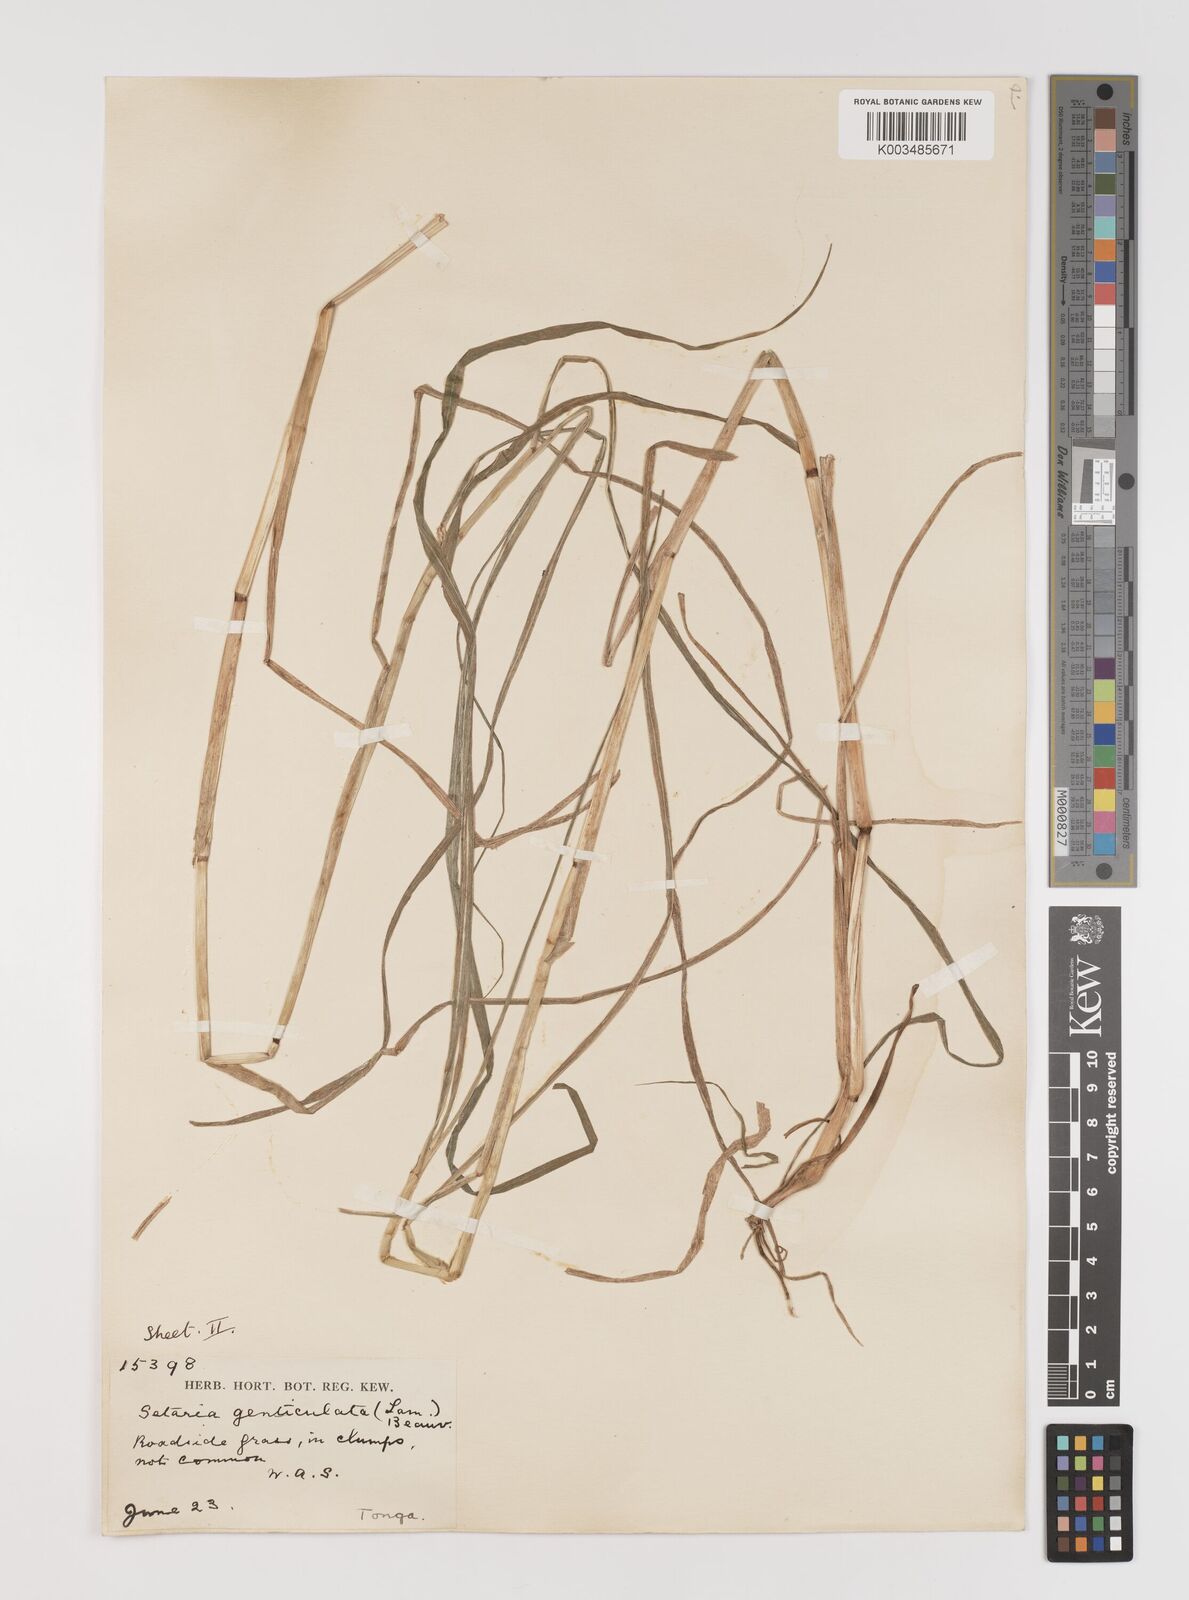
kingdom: Plantae
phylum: Tracheophyta
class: Liliopsida
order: Poales
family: Poaceae
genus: Setaria
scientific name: Setaria parviflora
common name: Knotroot bristle-grass
